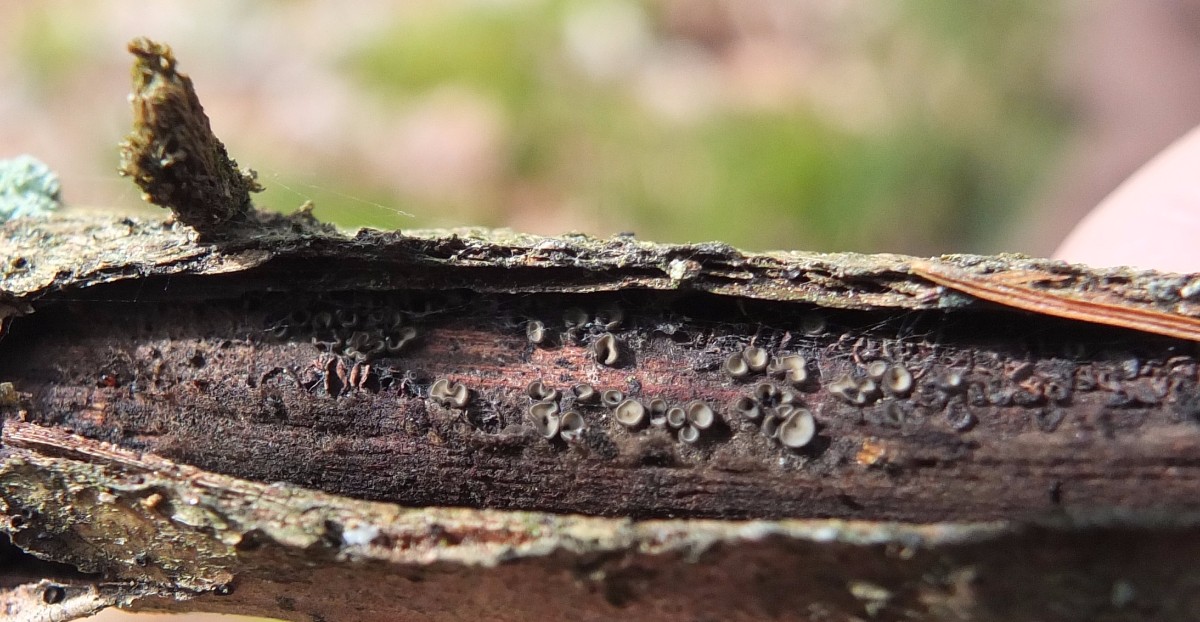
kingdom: Fungi
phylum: Ascomycota
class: Leotiomycetes
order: Helotiales
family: Mollisiaceae
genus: Mollisia
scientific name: Mollisia
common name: gråskive
